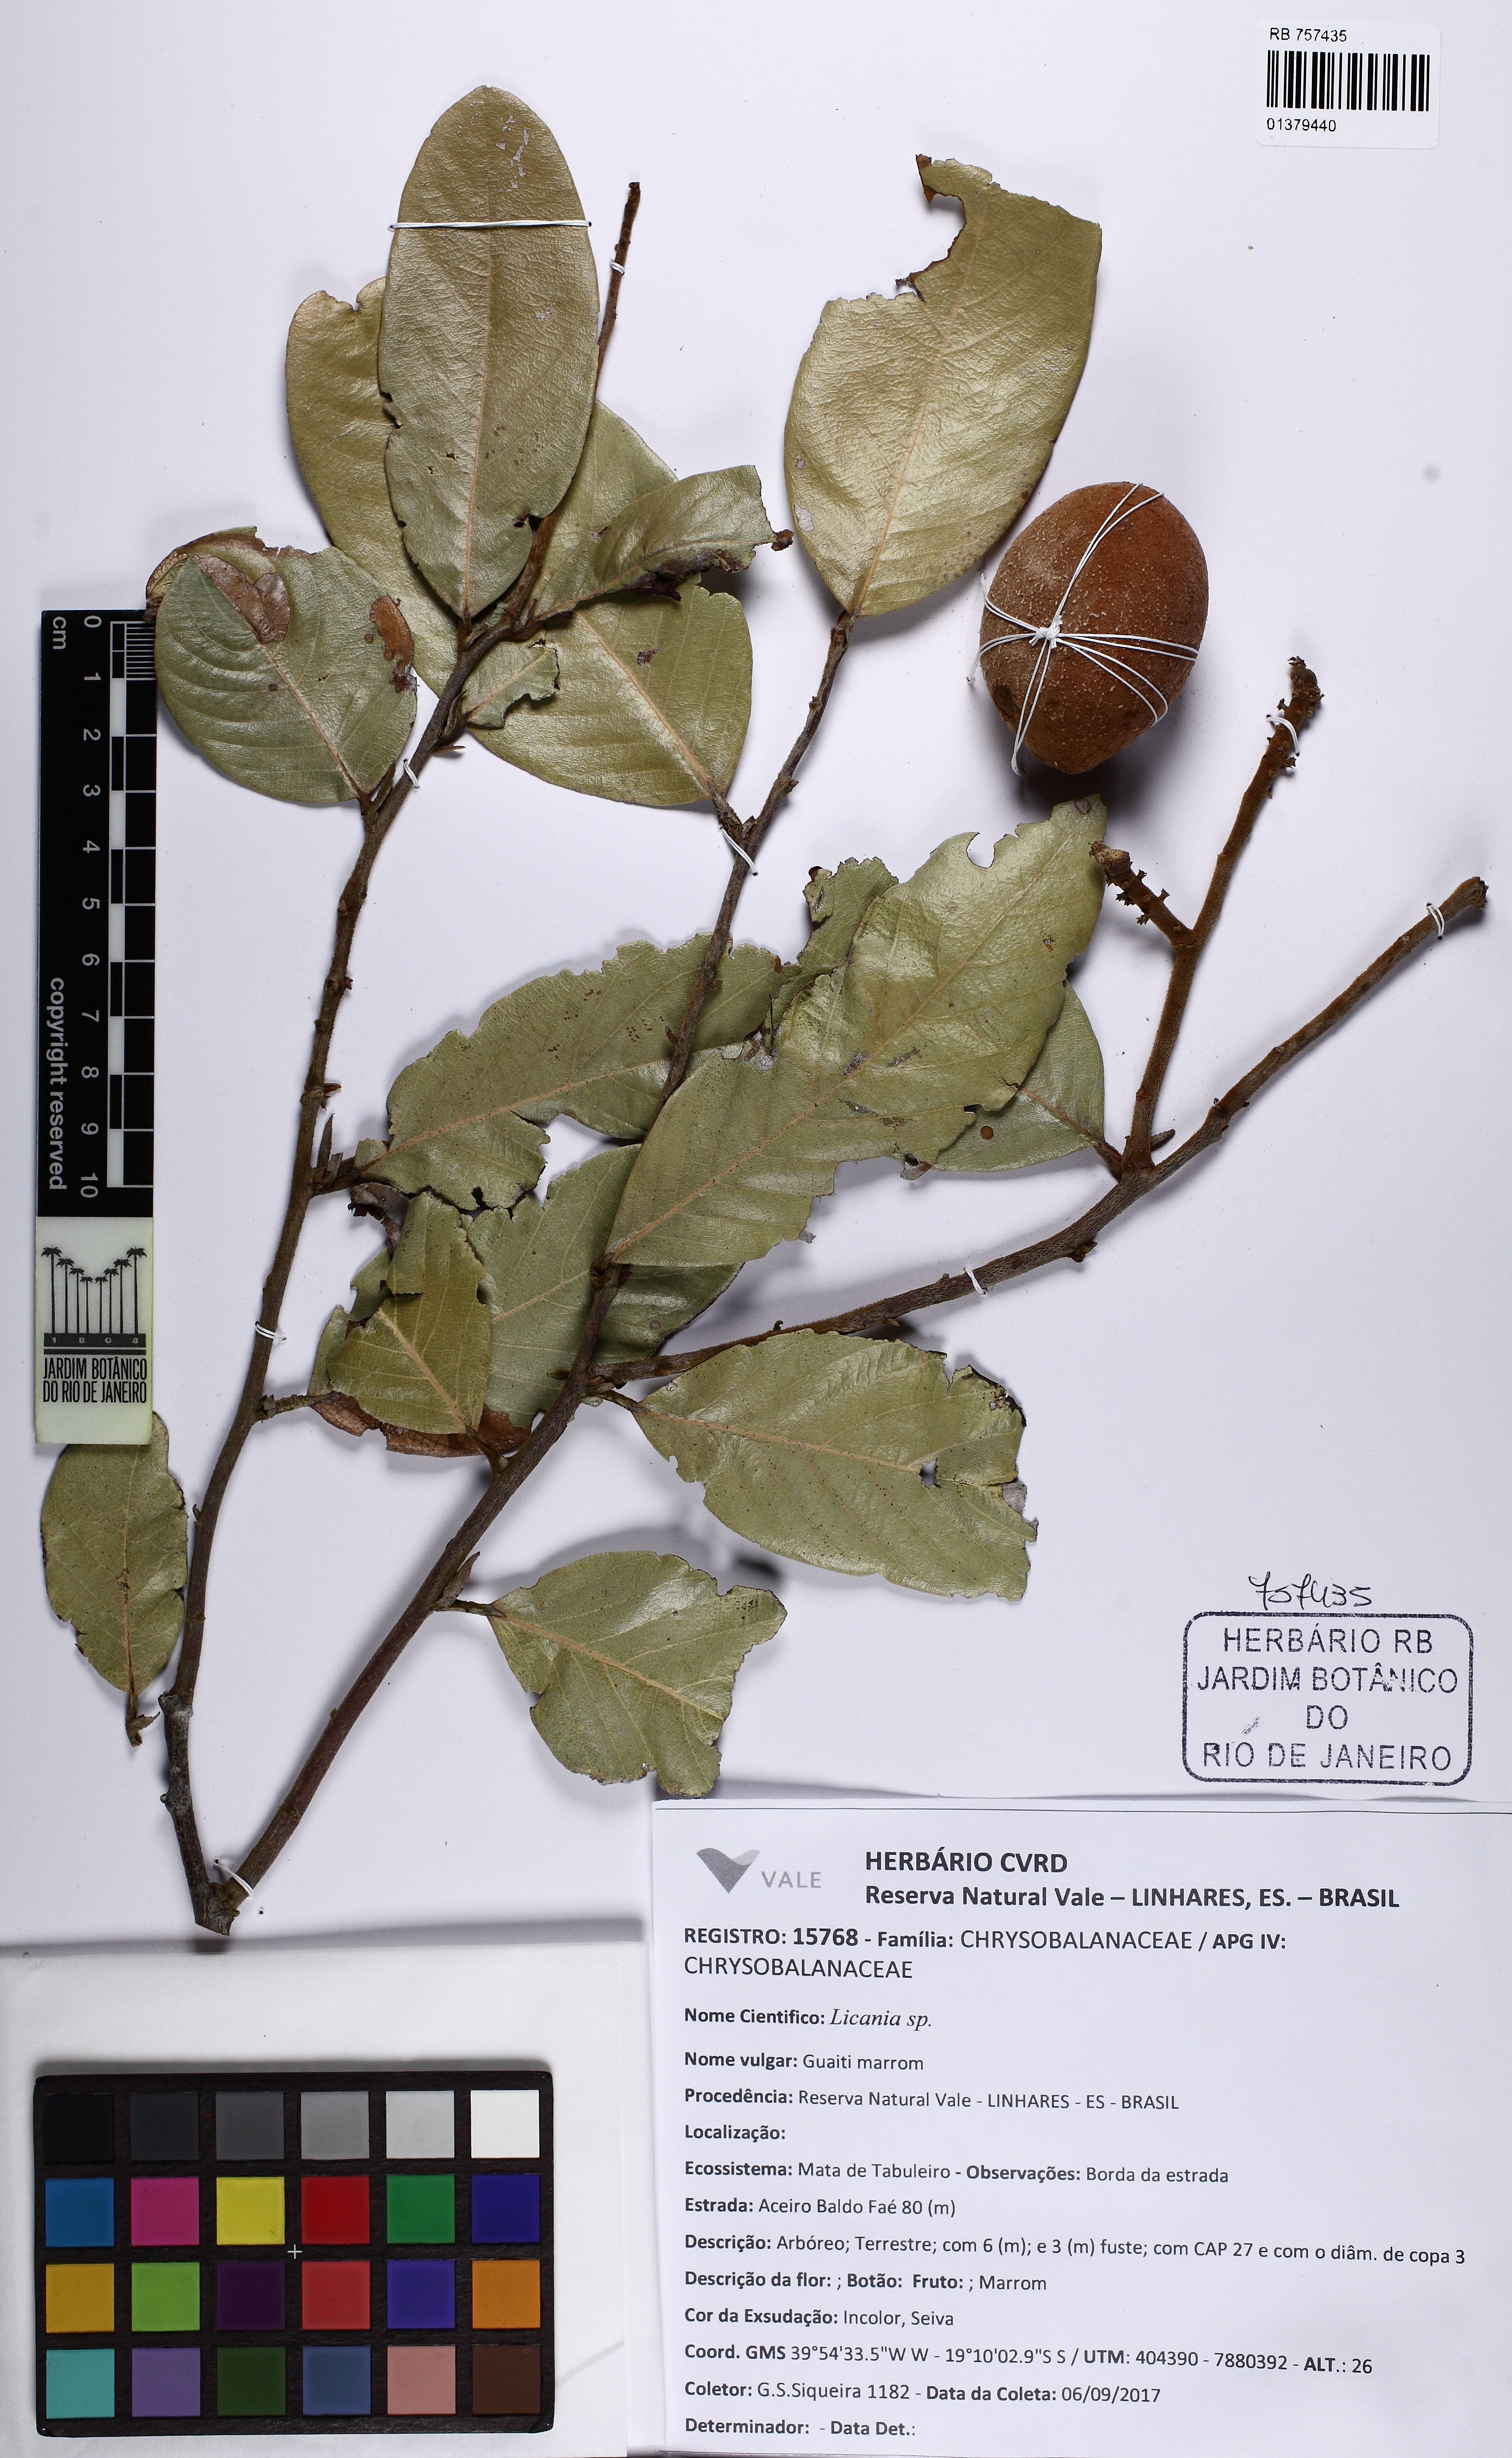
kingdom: Plantae
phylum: Tracheophyta
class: Magnoliopsida
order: Malpighiales
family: Chrysobalanaceae
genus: Licania
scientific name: Licania naviculistipula
